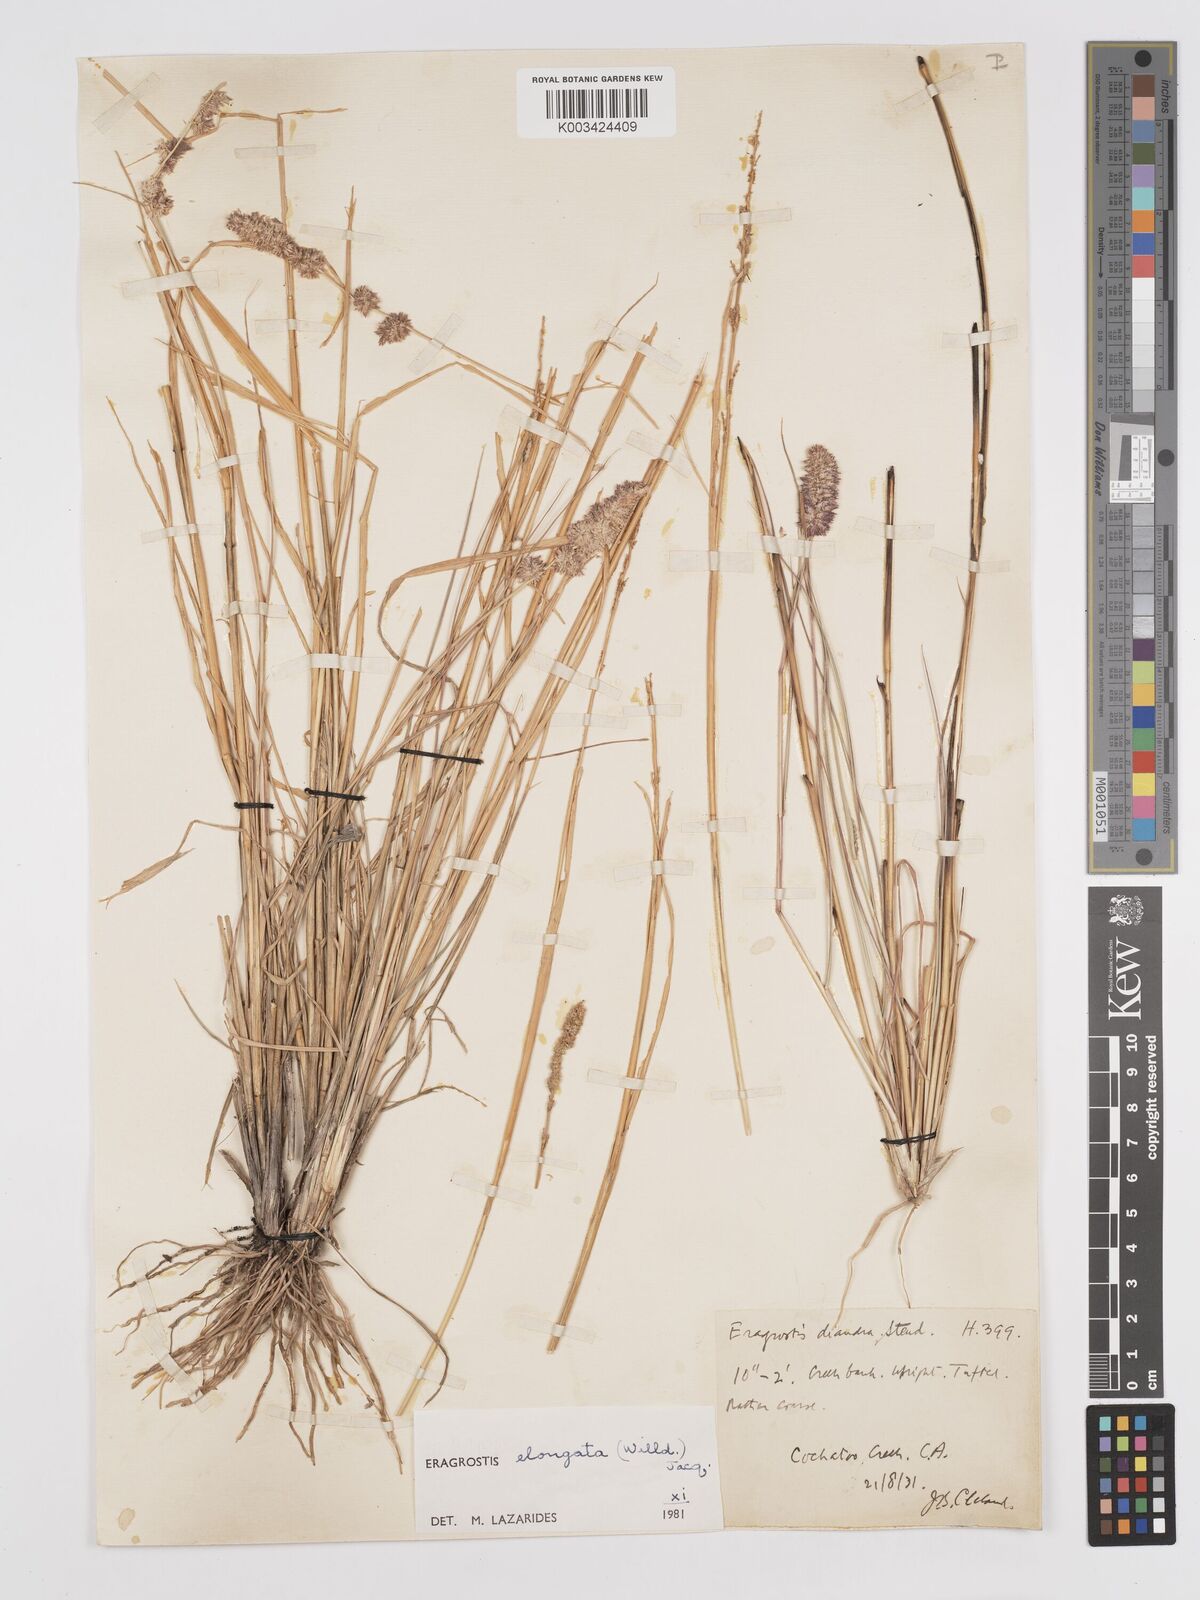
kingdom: Plantae
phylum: Tracheophyta
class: Liliopsida
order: Poales
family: Poaceae
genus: Eragrostis
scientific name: Eragrostis elongata
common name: Long lovegrass
